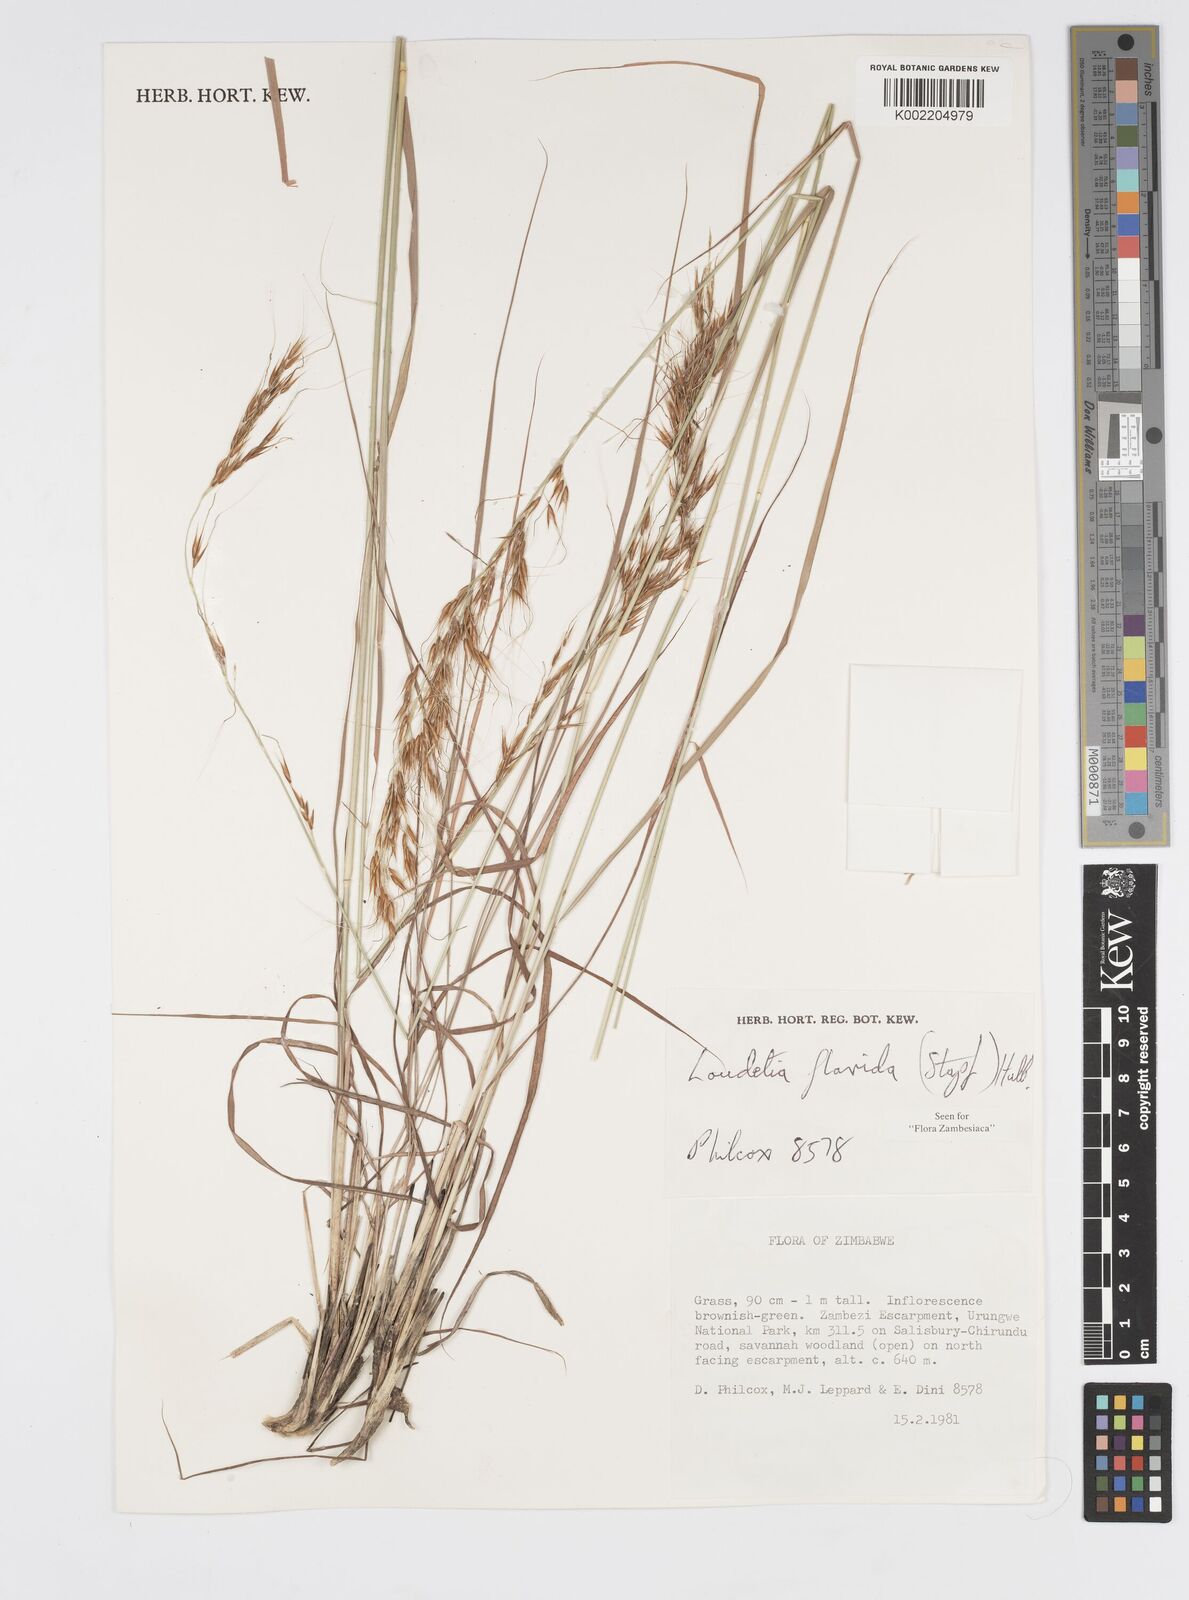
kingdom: Plantae
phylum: Tracheophyta
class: Liliopsida
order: Poales
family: Poaceae
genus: Loudetia
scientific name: Loudetia flavida
